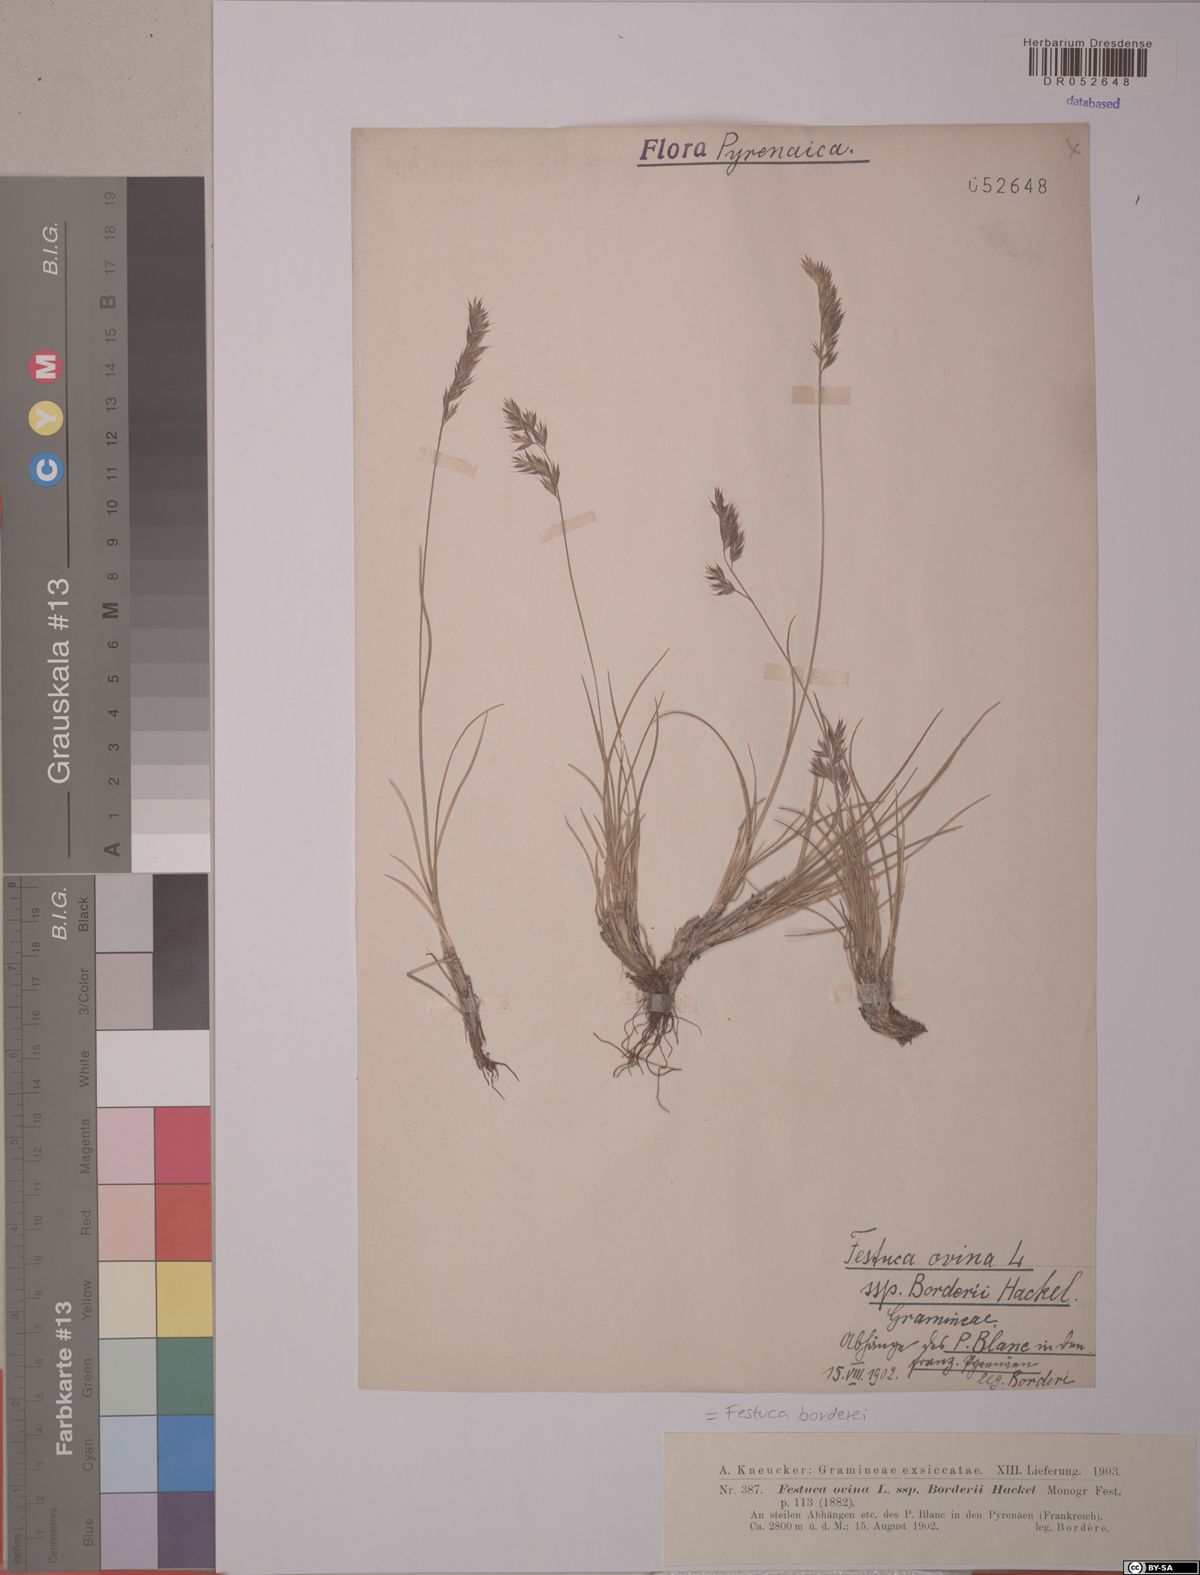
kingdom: Plantae
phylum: Tracheophyta
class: Liliopsida
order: Poales
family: Poaceae
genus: Festuca
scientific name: Festuca borderii
